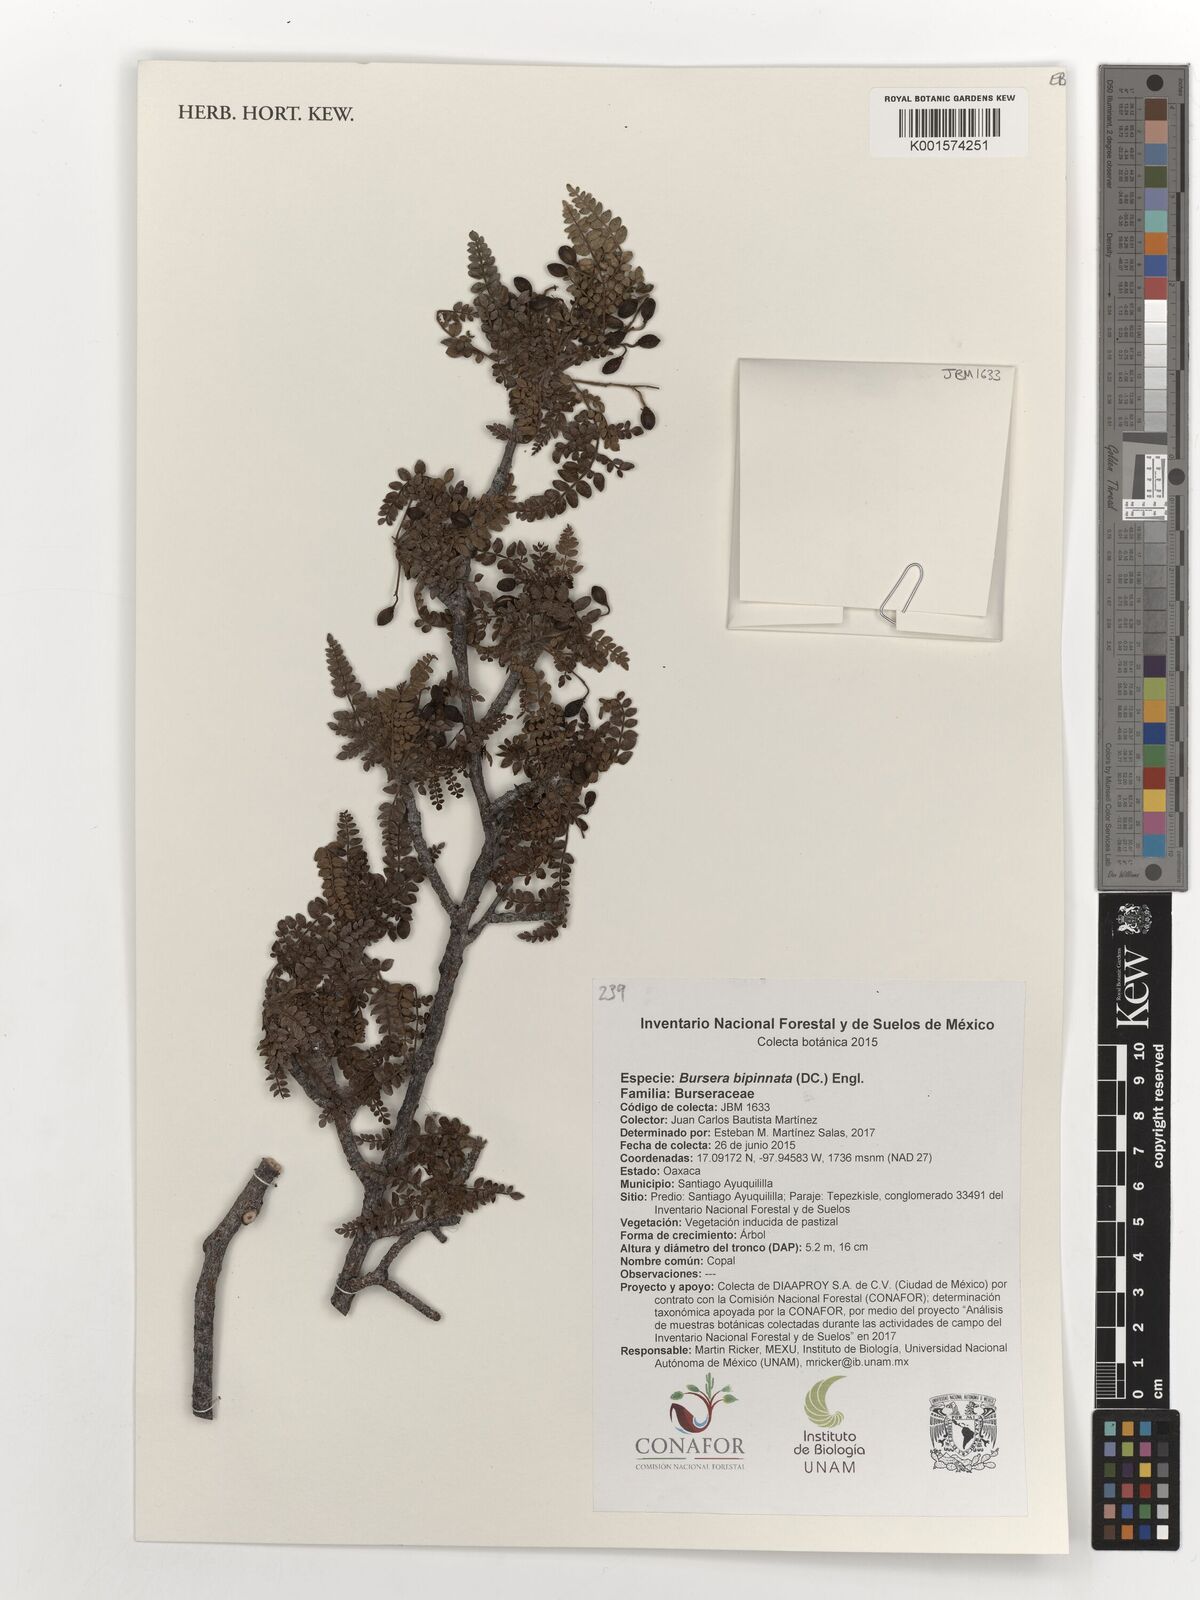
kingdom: Plantae
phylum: Tracheophyta
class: Magnoliopsida
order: Sapindales
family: Burseraceae
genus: Bursera
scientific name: Bursera bipinnata
